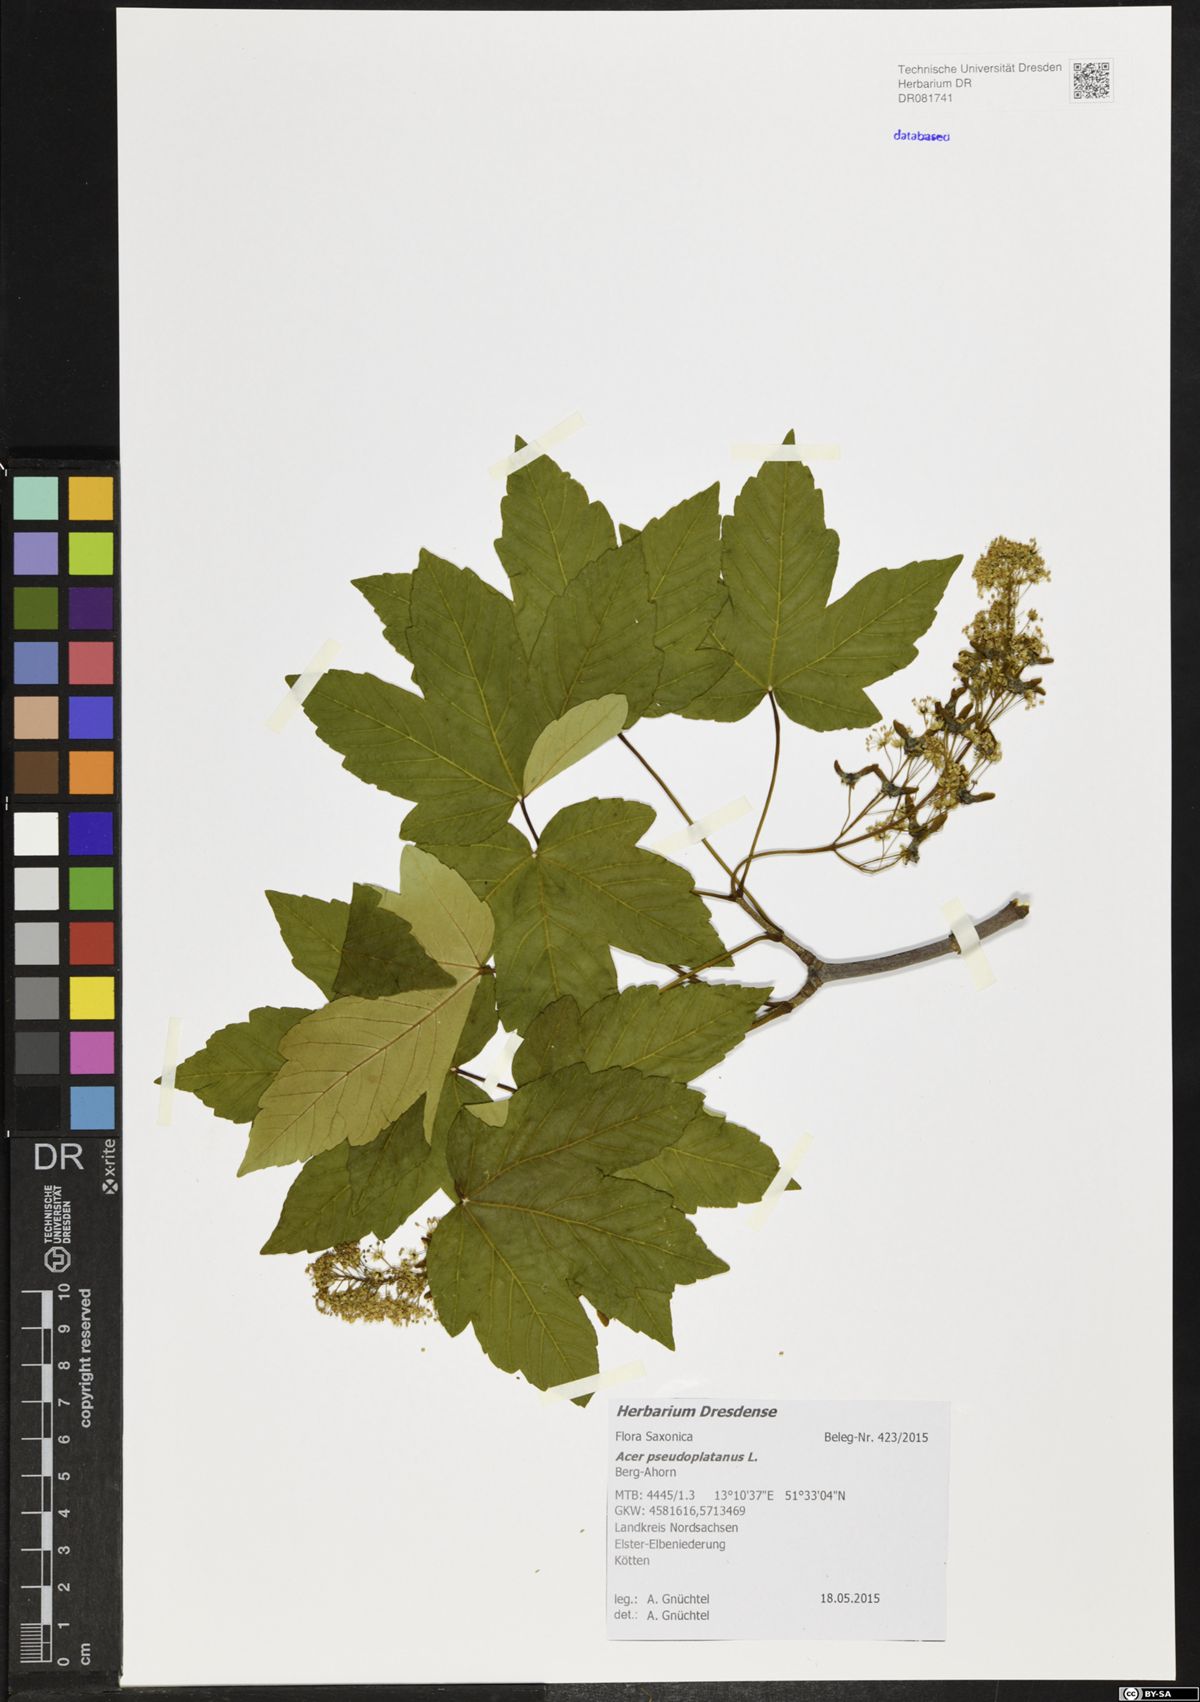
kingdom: Plantae
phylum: Tracheophyta
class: Magnoliopsida
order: Sapindales
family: Sapindaceae
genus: Acer
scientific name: Acer pseudoplatanus
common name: Sycamore
